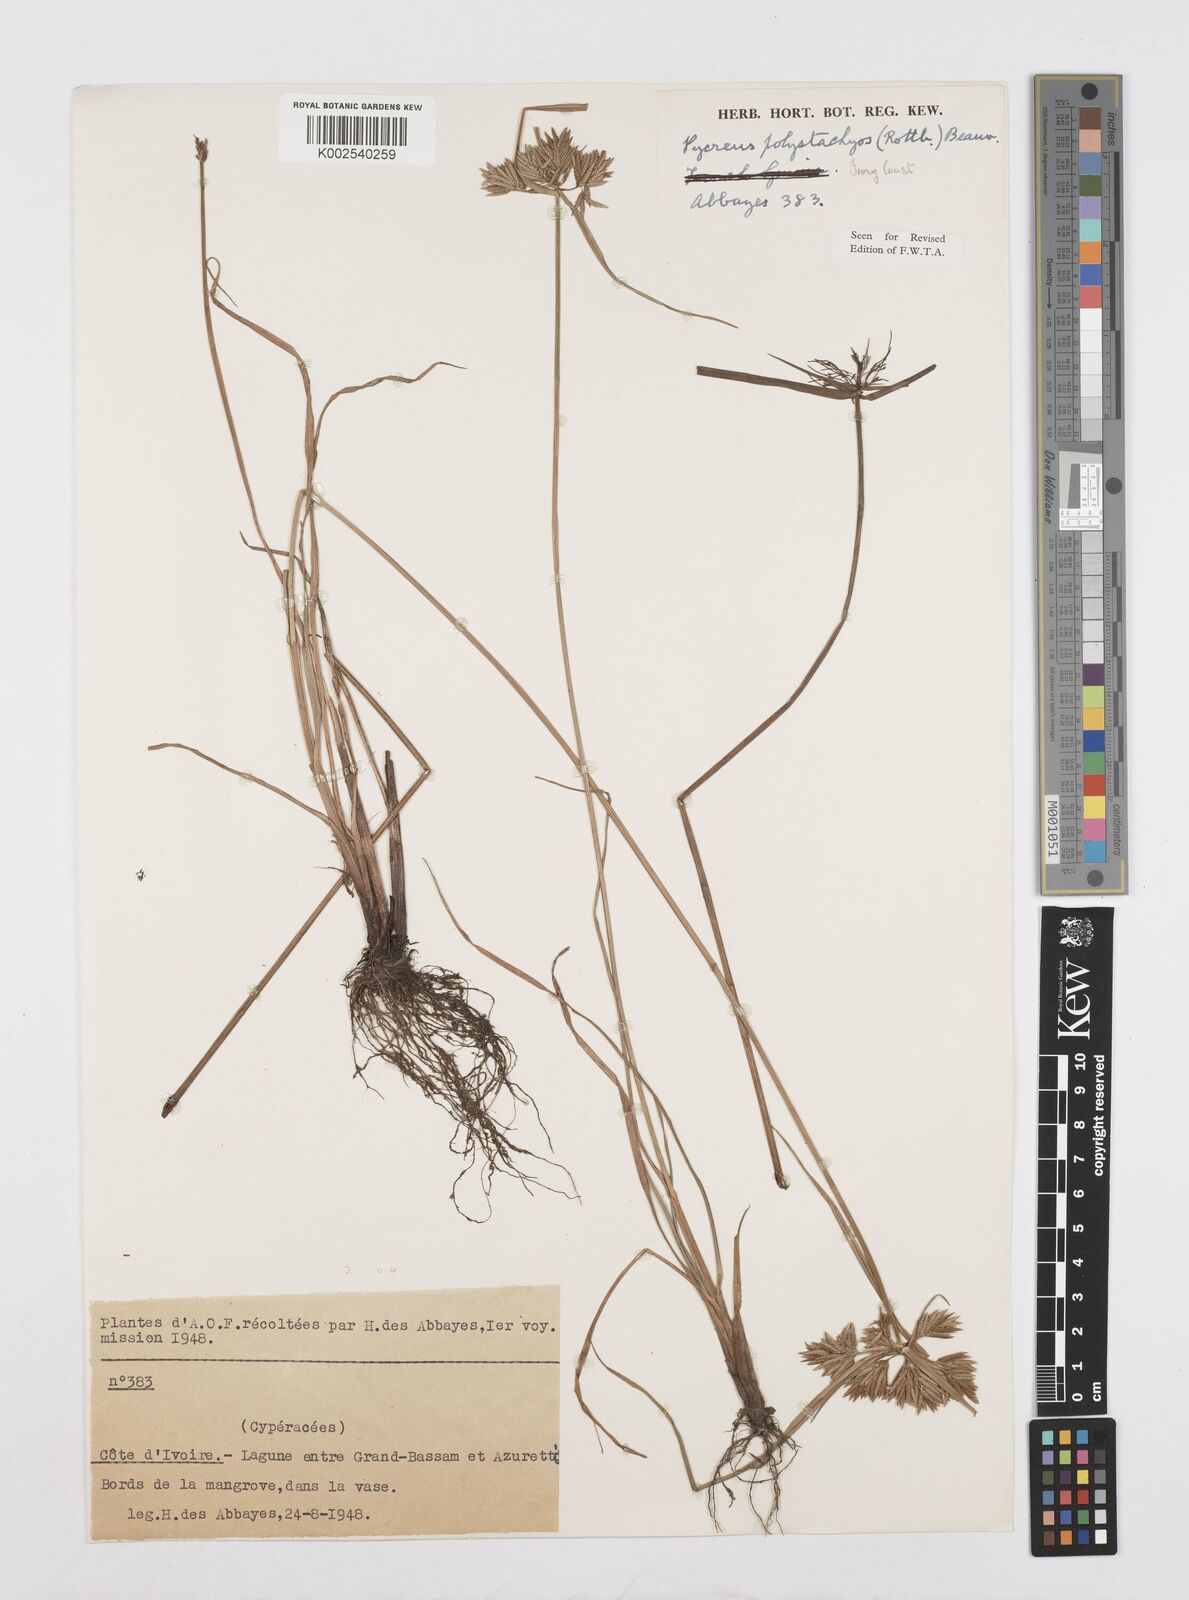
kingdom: Plantae
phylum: Tracheophyta
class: Liliopsida
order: Poales
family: Cyperaceae
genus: Cyperus
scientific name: Cyperus polystachyos
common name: Bunchy flat sedge
